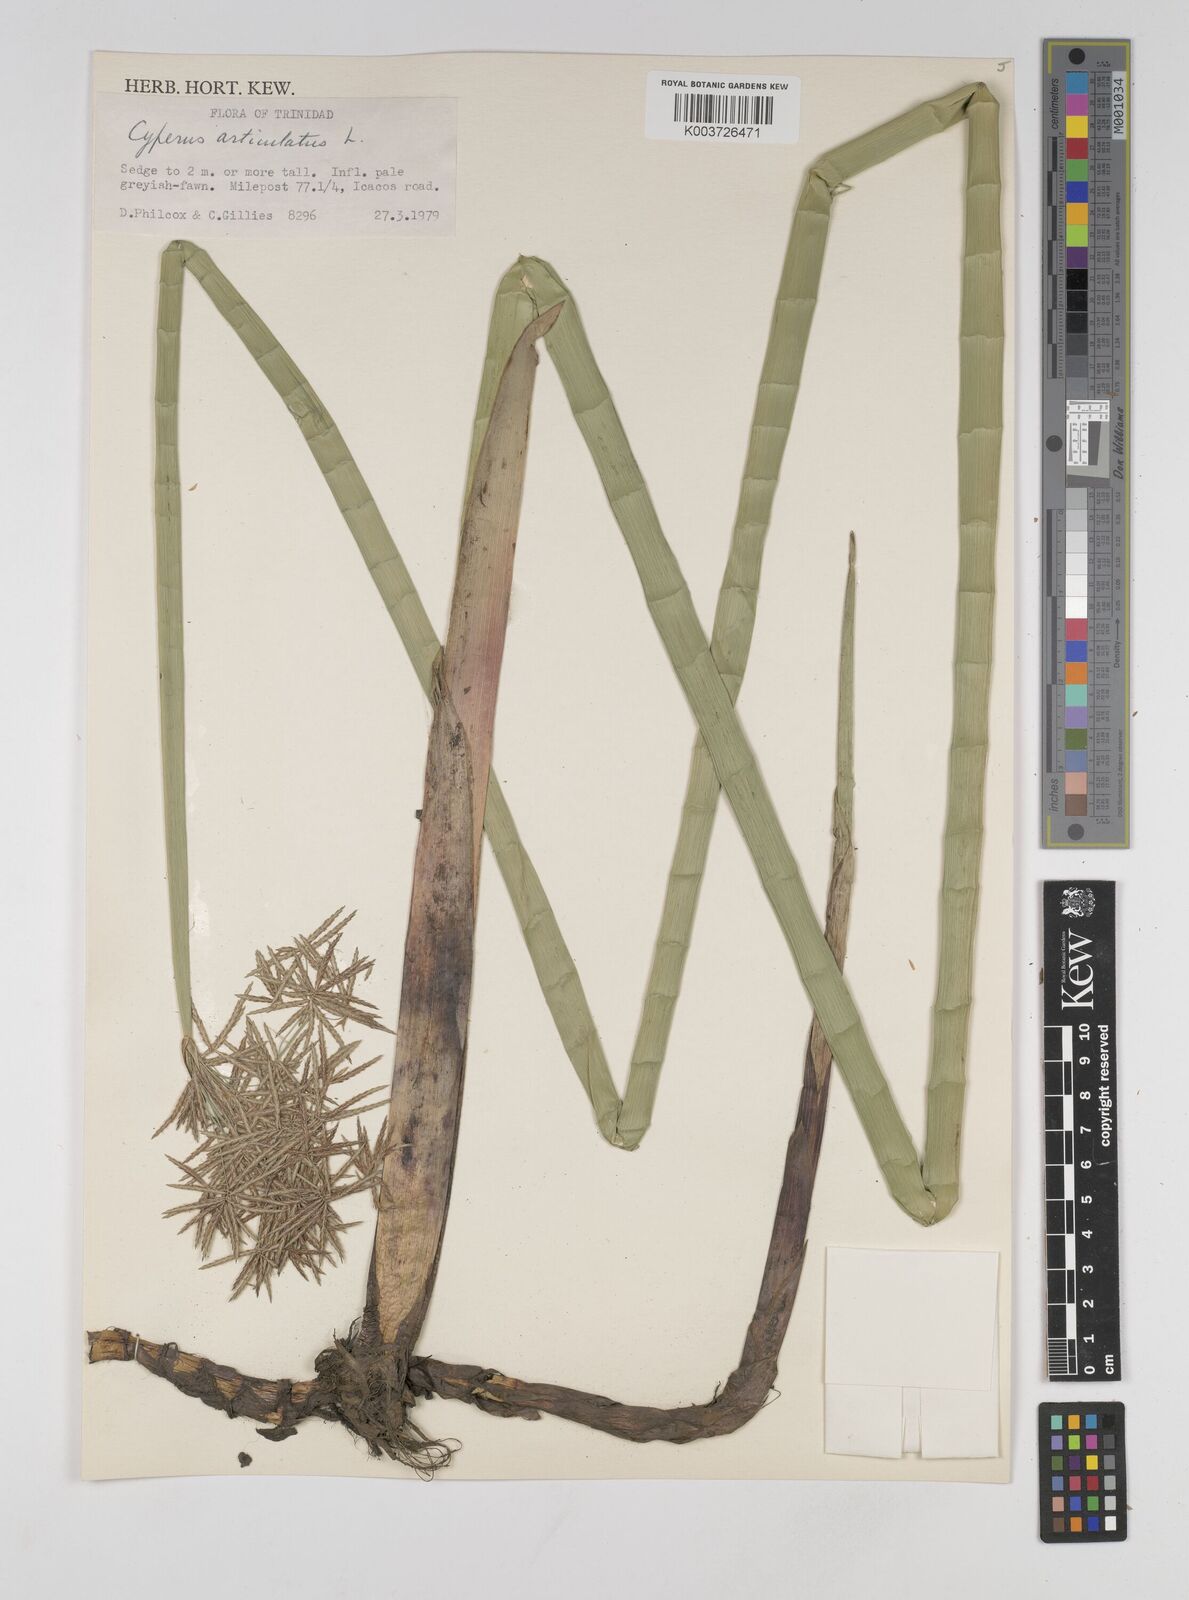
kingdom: Plantae
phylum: Tracheophyta
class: Liliopsida
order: Poales
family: Cyperaceae
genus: Cyperus
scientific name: Cyperus articulatus
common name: Jointed flatsedge
